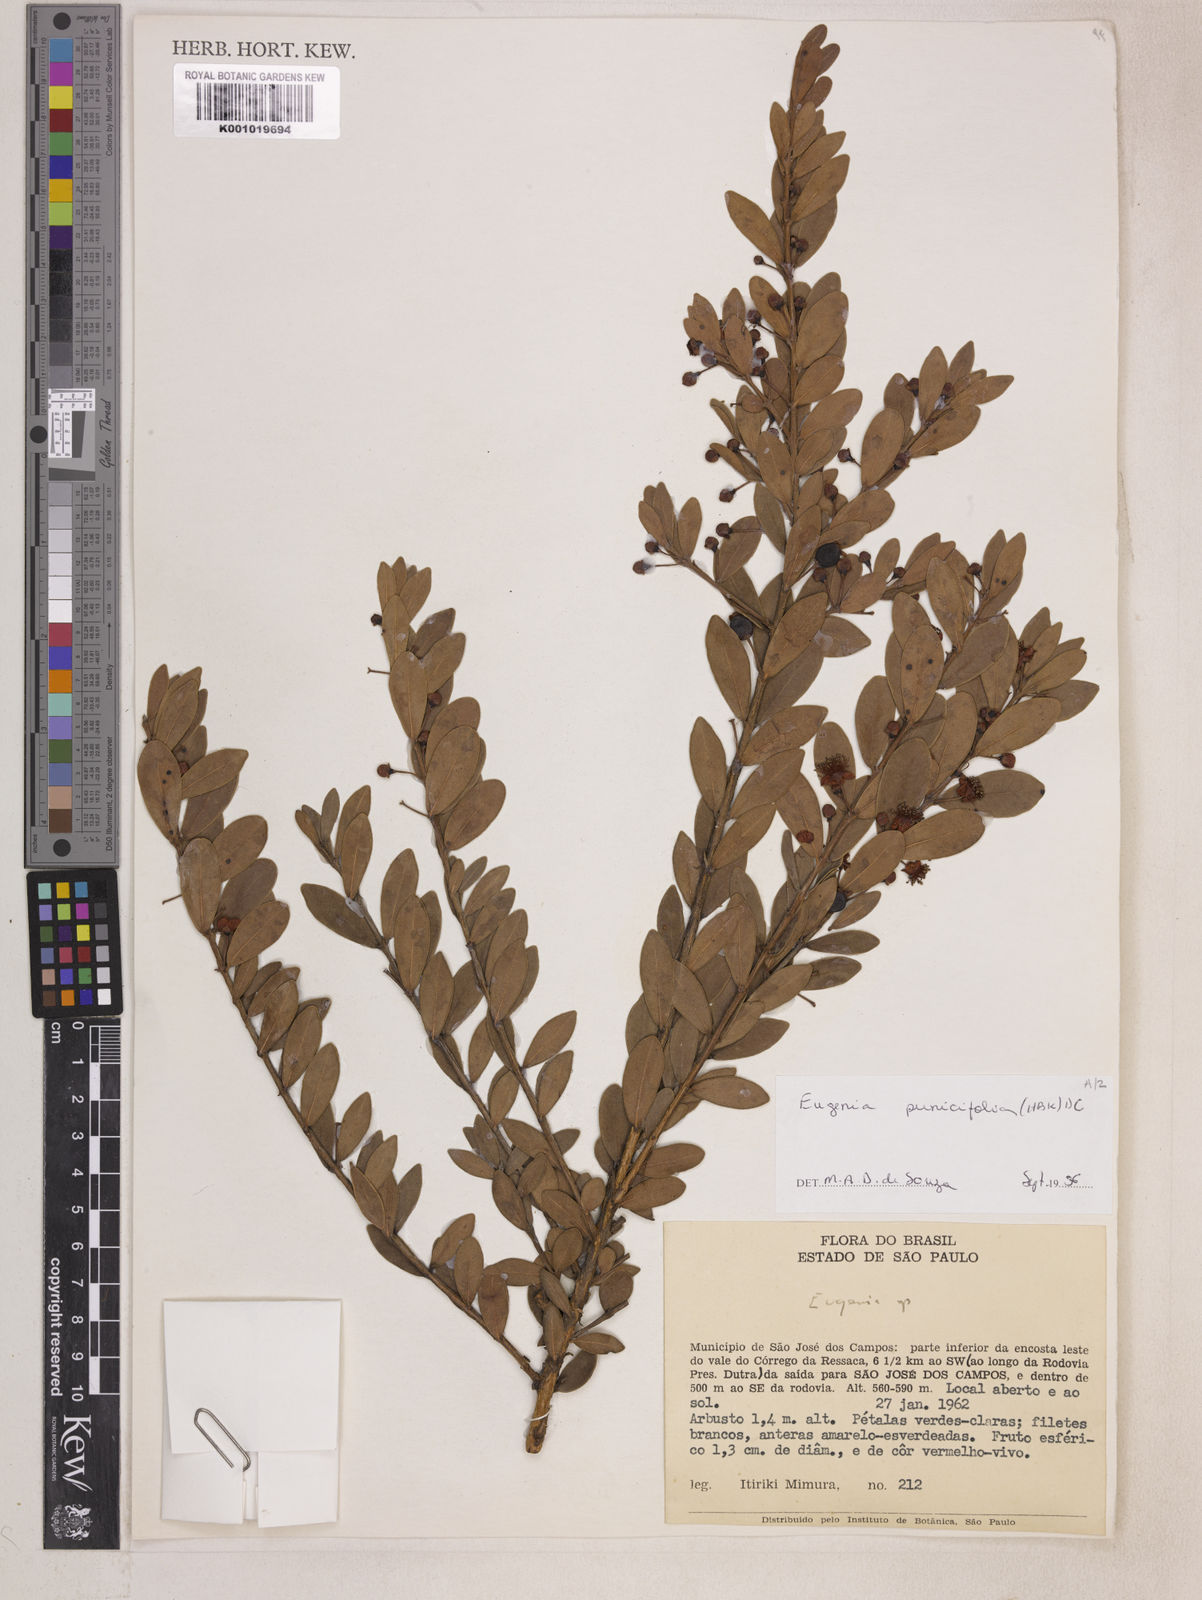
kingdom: Plantae
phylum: Tracheophyta
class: Magnoliopsida
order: Myrtales
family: Myrtaceae
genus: Eugenia
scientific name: Eugenia punicifolia
